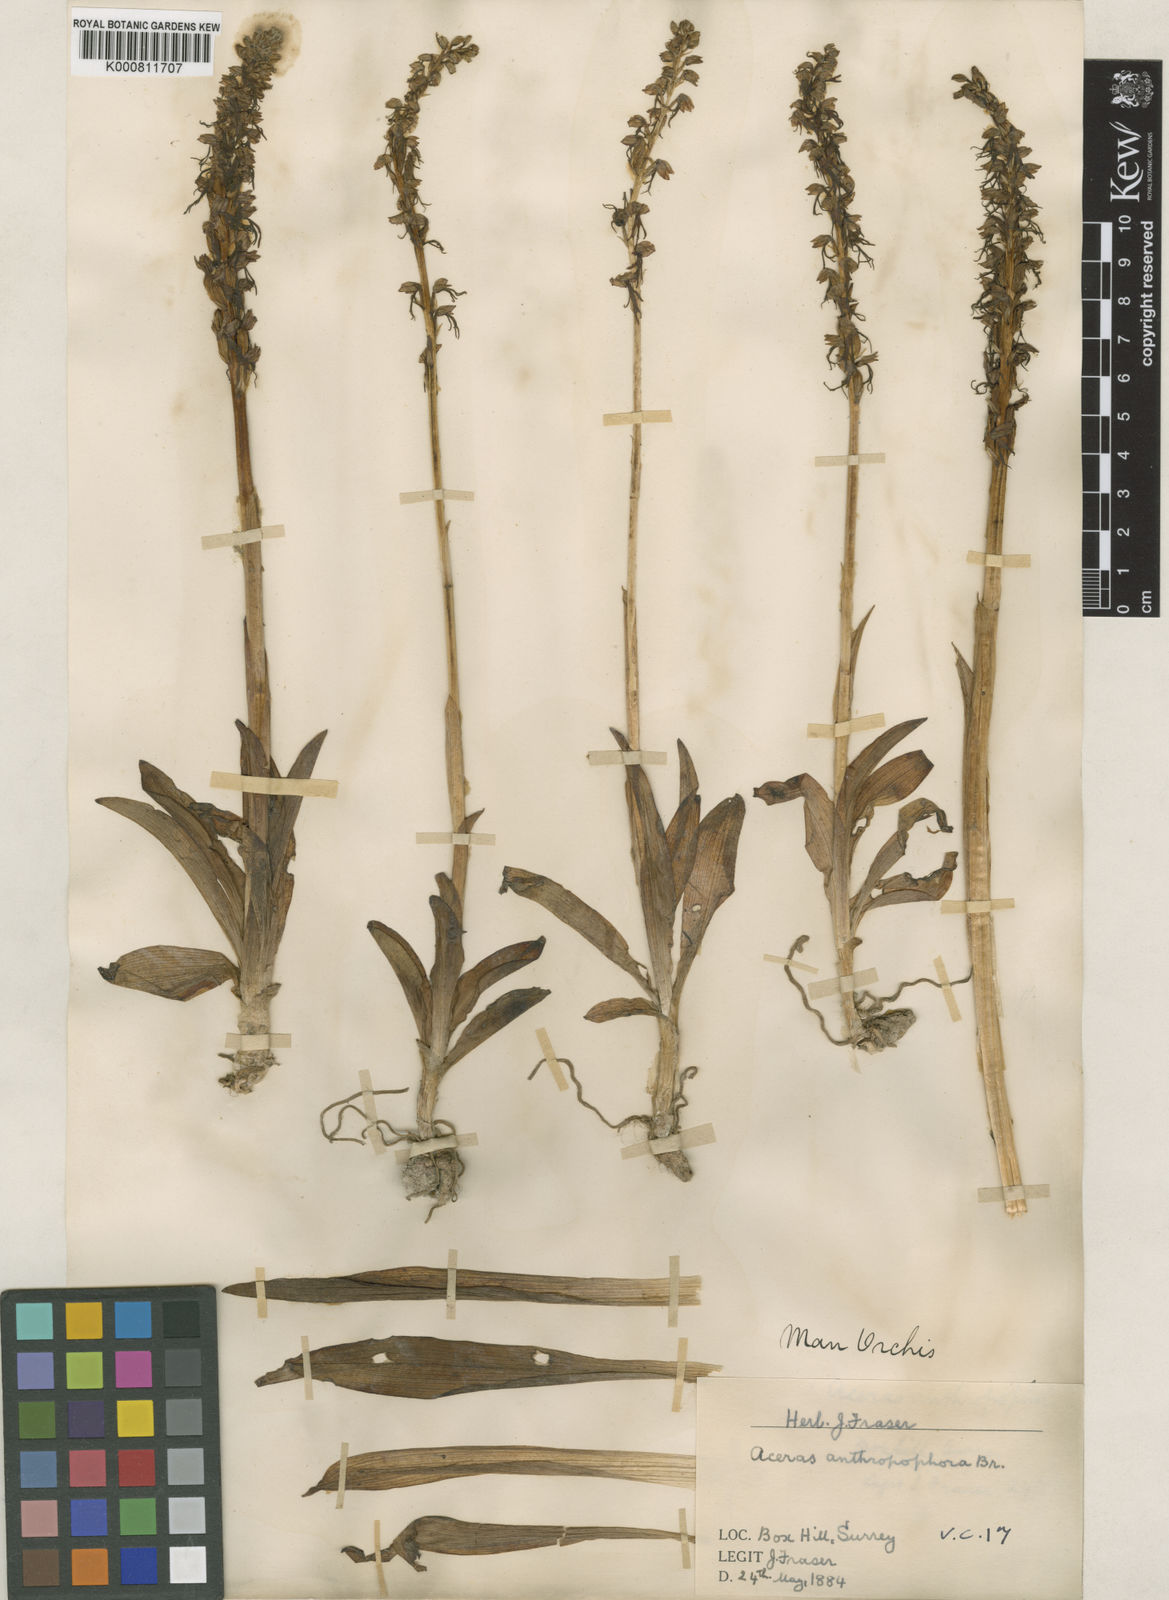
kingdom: Plantae
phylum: Tracheophyta
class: Liliopsida
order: Asparagales
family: Orchidaceae
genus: Orchis
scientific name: Orchis
